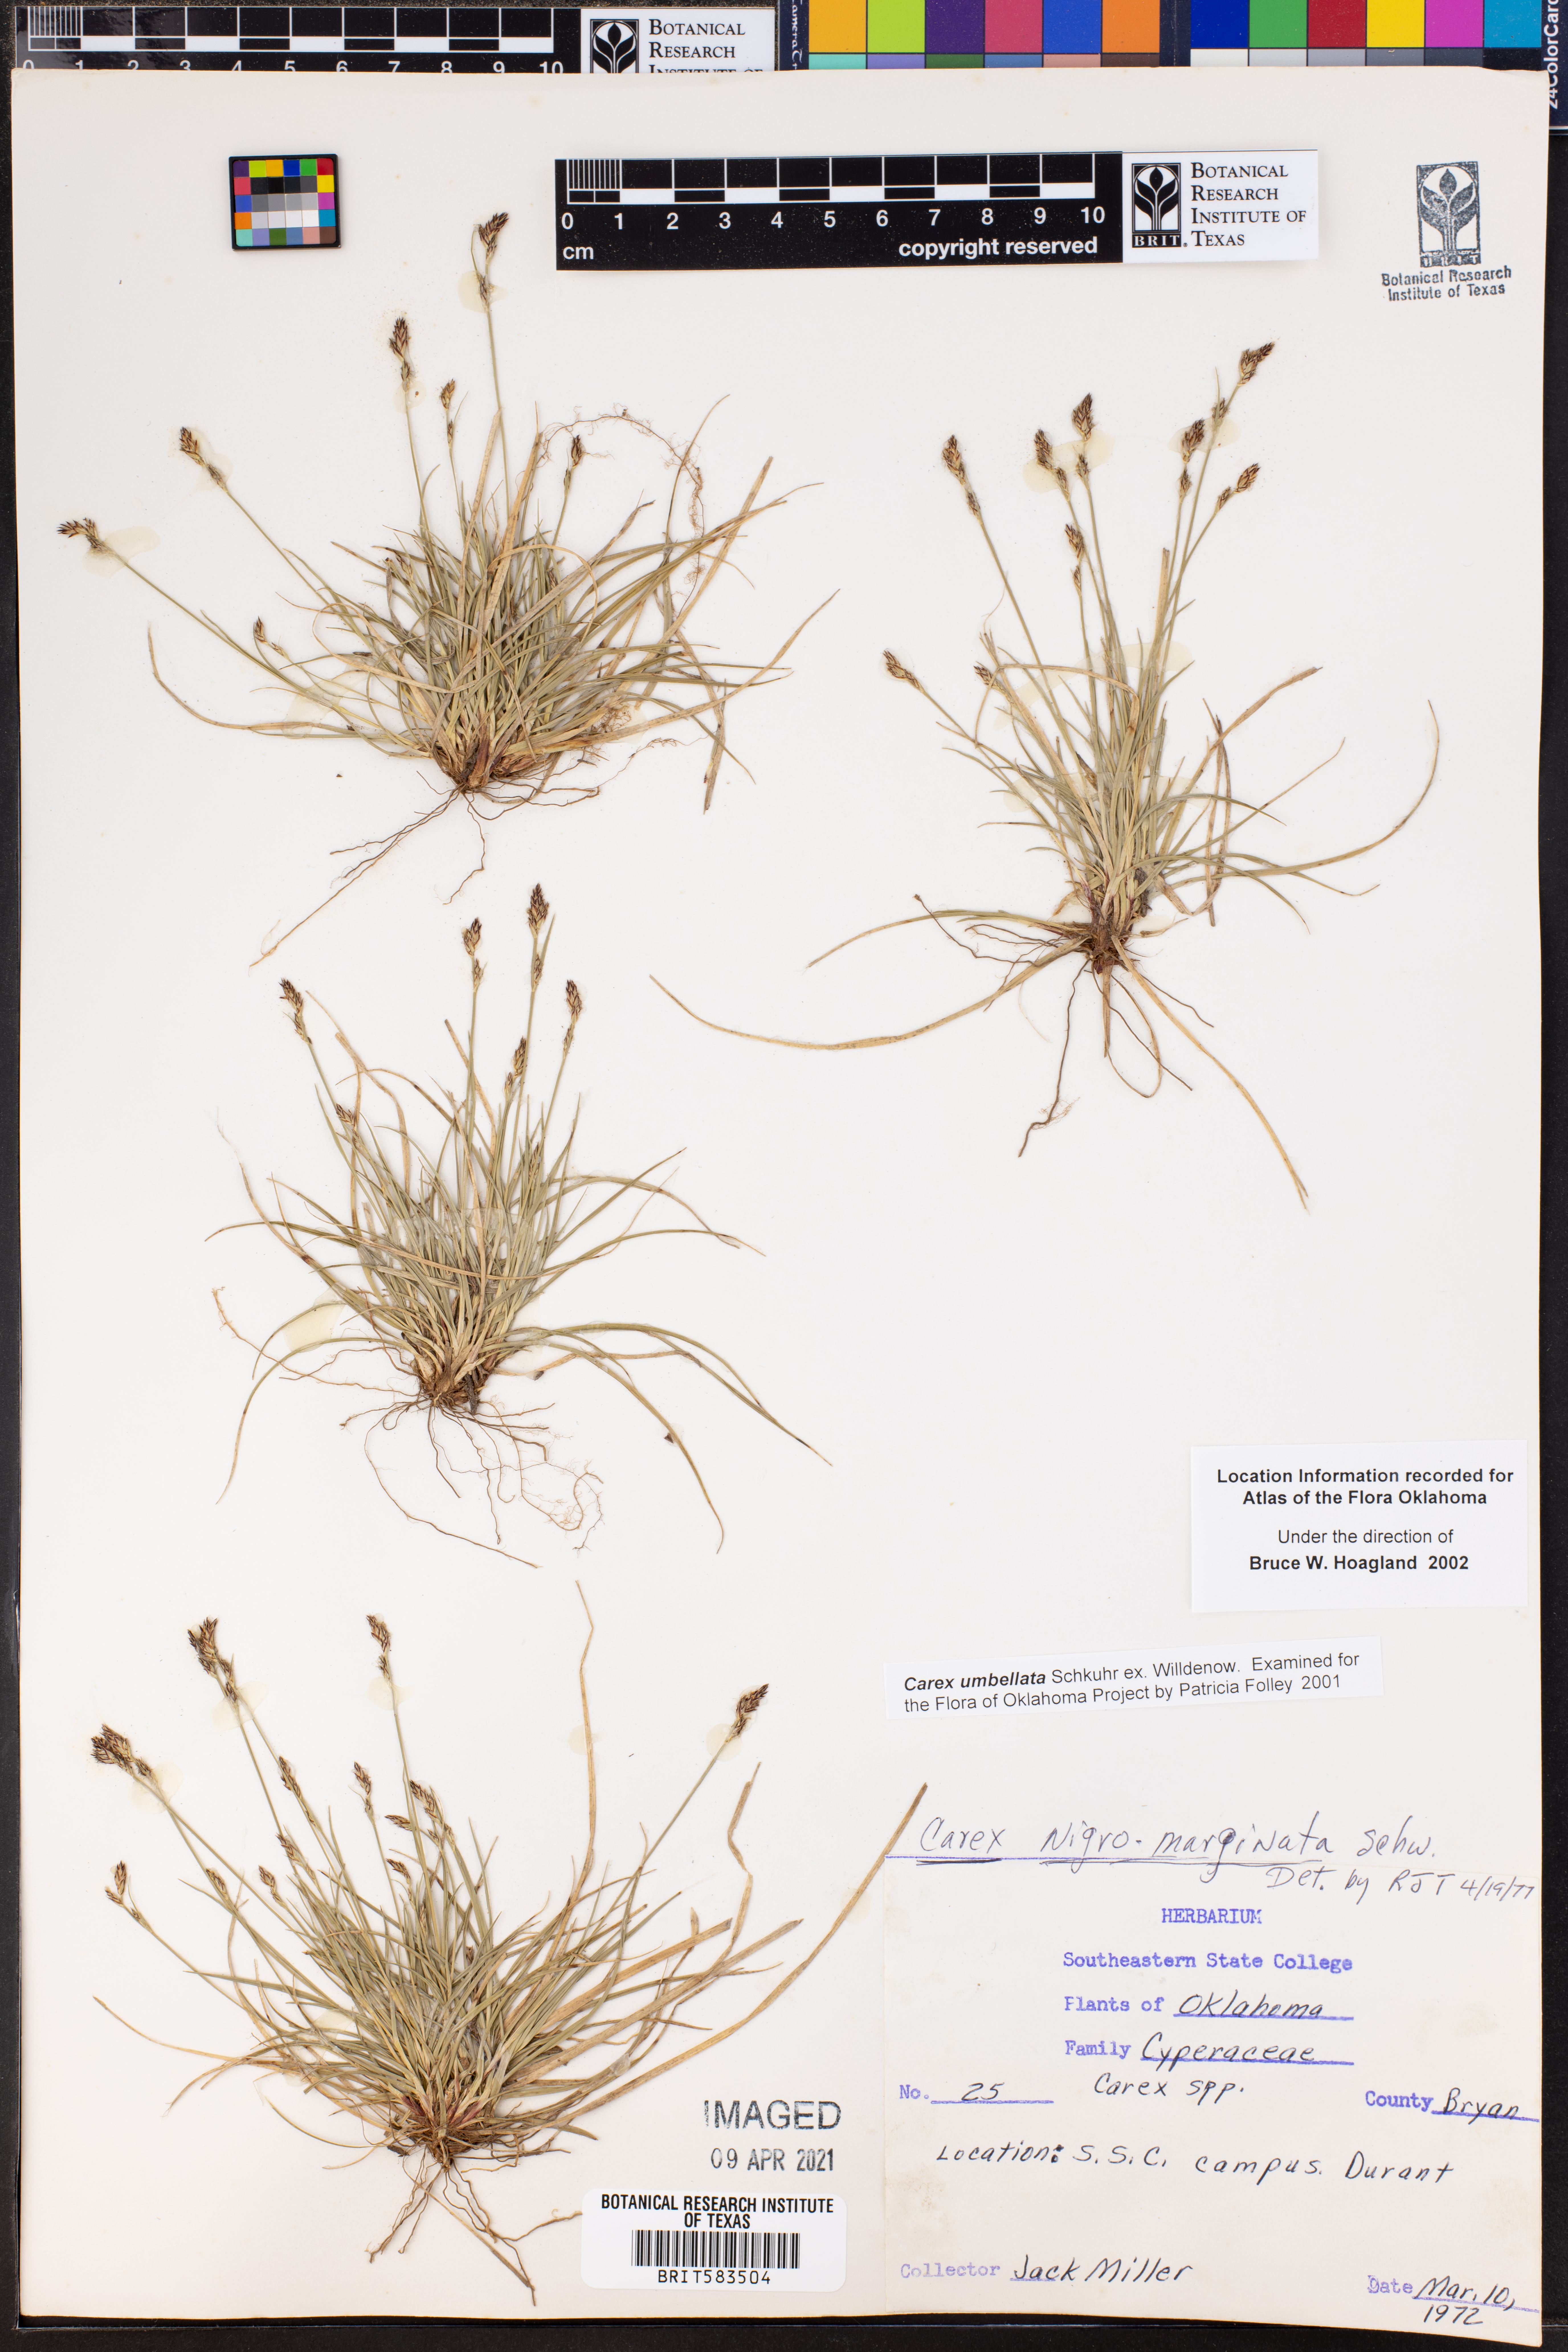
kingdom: Plantae
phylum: Tracheophyta
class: Liliopsida
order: Poales
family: Cyperaceae
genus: Carex
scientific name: Carex umbellata
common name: Early oak sedge
